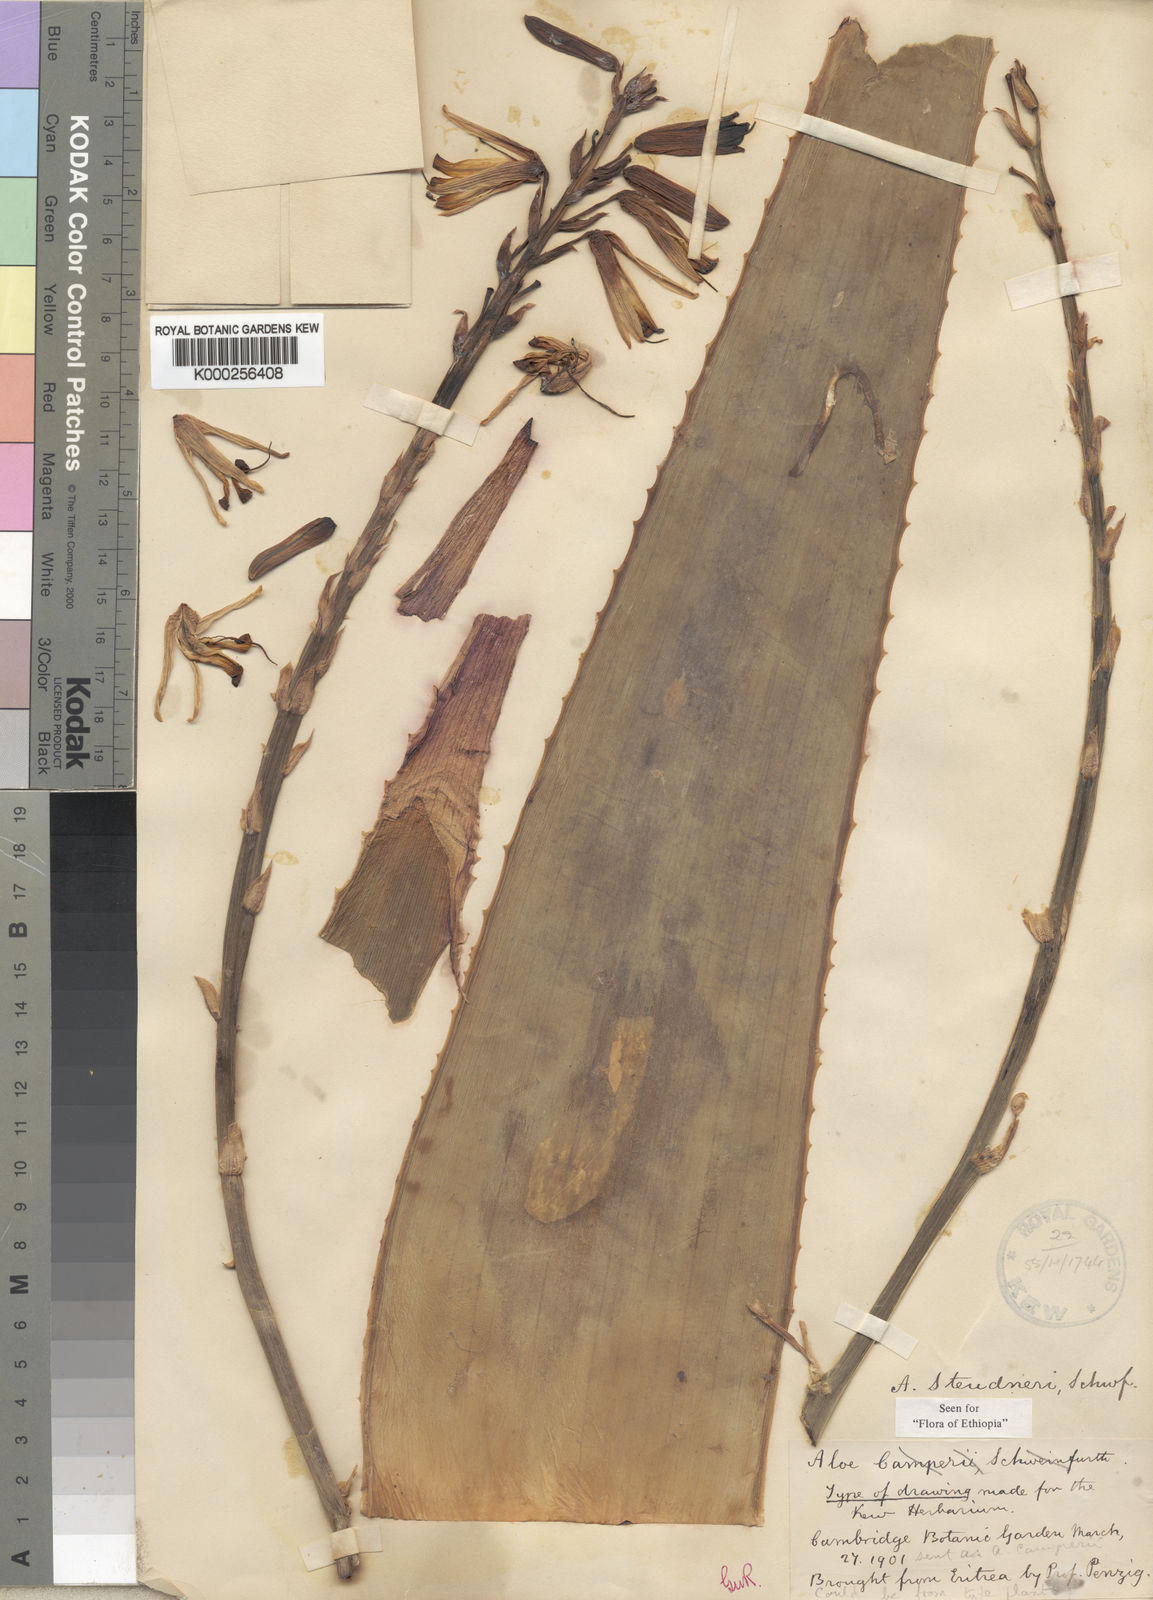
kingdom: Plantae
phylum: Tracheophyta
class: Liliopsida
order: Asparagales
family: Asphodelaceae
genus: Aloe
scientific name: Aloe
